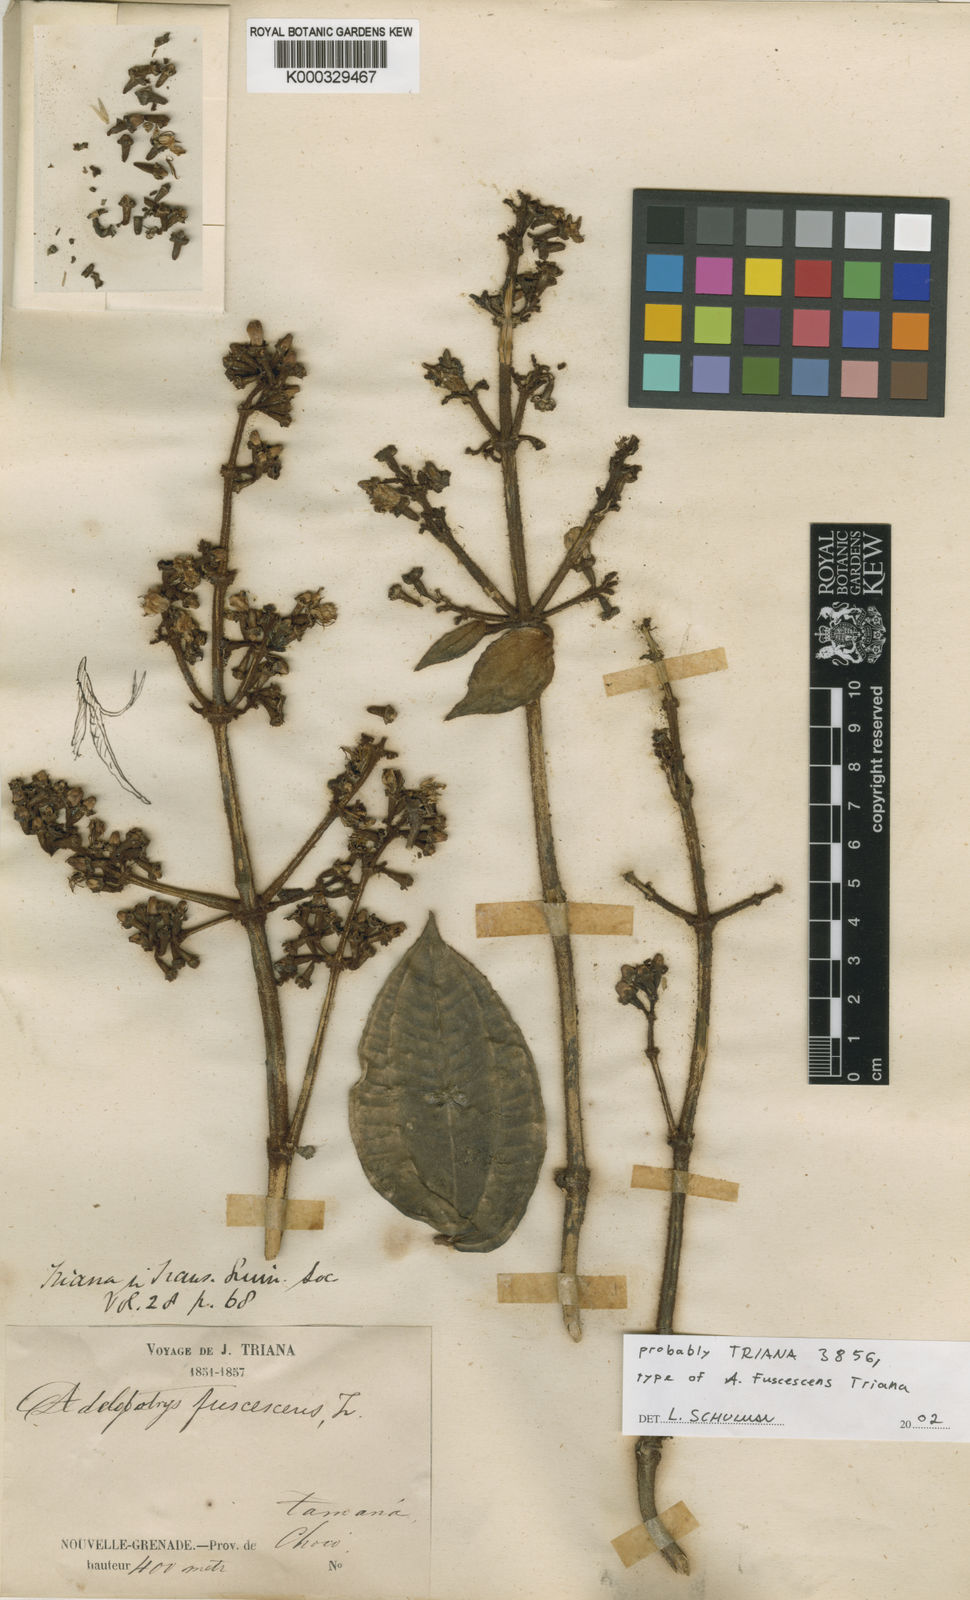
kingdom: Plantae
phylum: Tracheophyta
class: Magnoliopsida
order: Myrtales
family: Melastomataceae
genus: Adelobotrys
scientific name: Adelobotrys fuscescens
